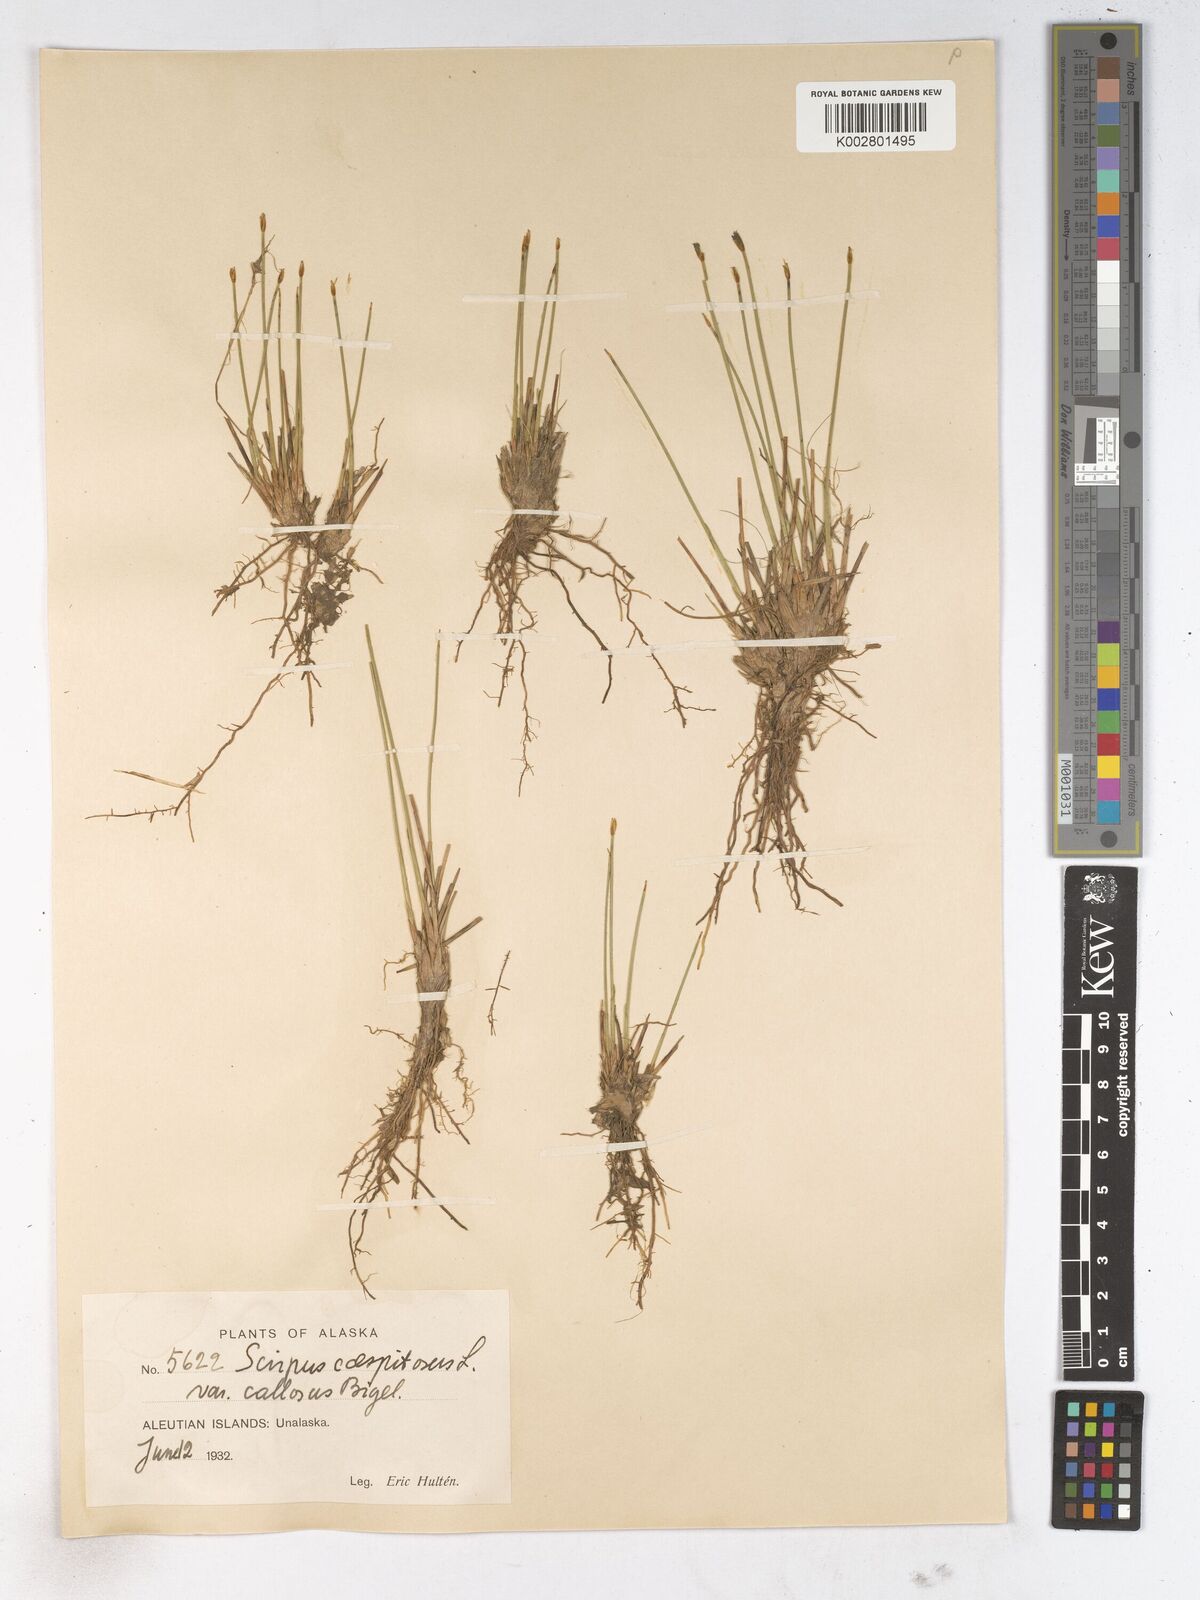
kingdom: Plantae
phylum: Tracheophyta
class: Liliopsida
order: Poales
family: Cyperaceae
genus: Trichophorum
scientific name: Trichophorum cespitosum
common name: Cespitose bulrush
